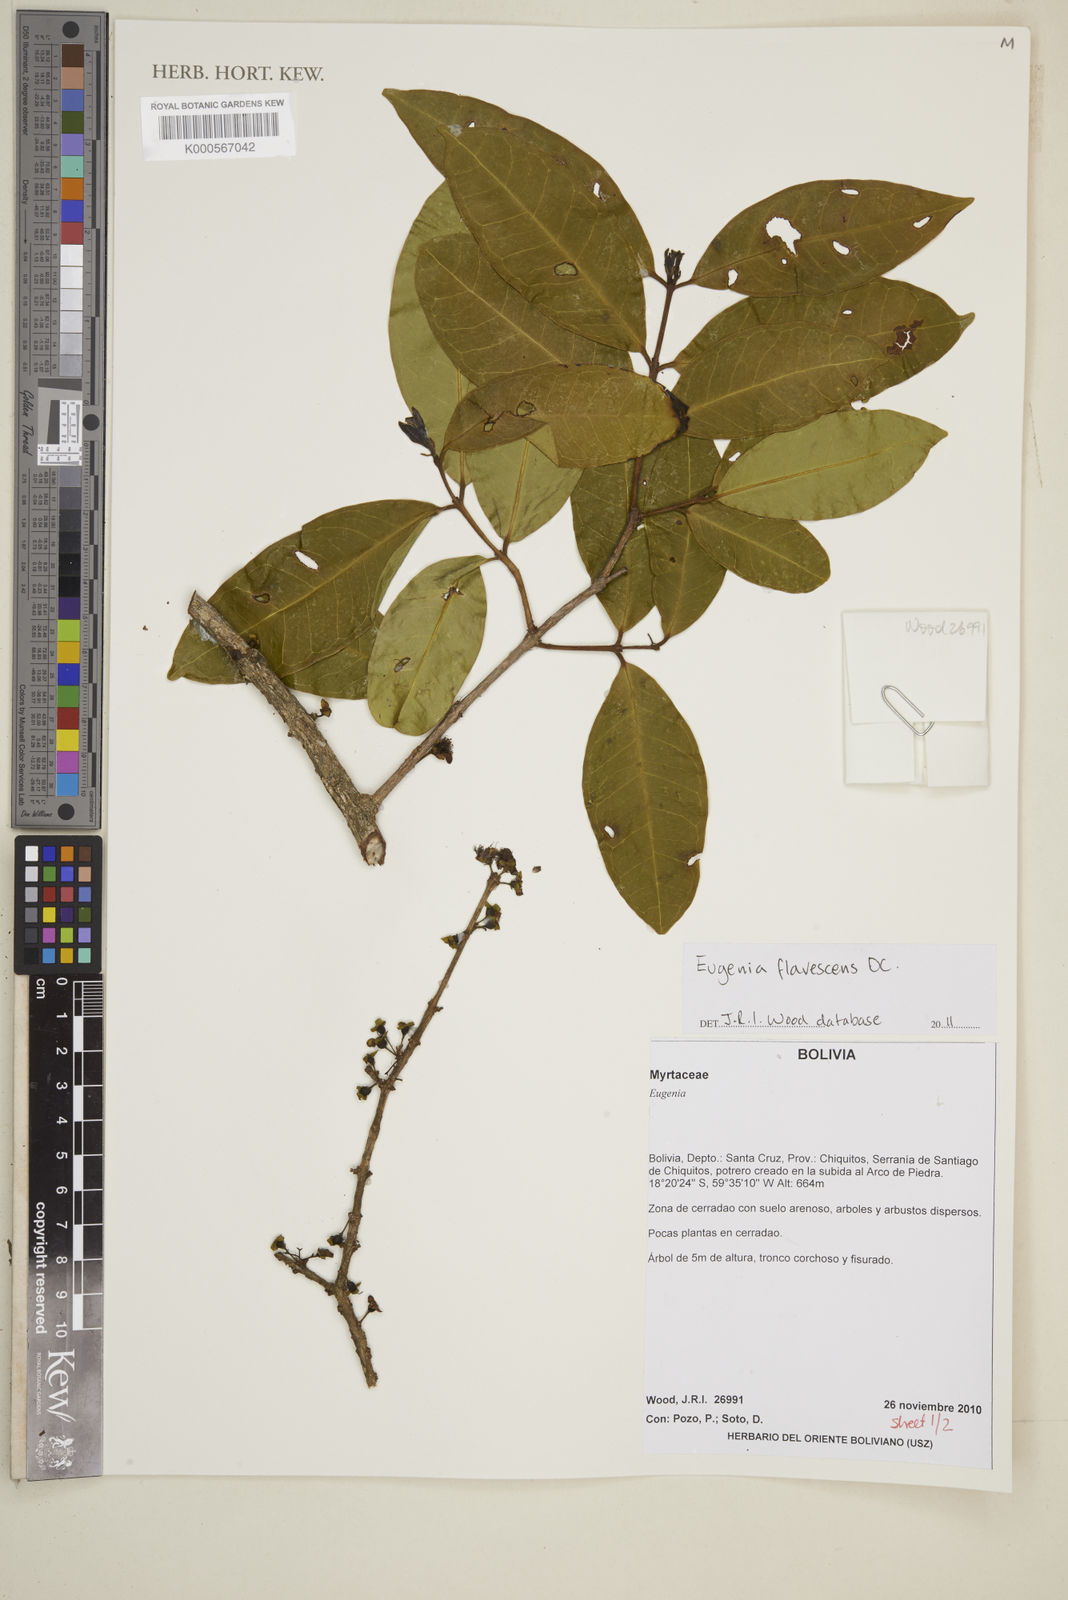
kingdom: Plantae
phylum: Tracheophyta
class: Magnoliopsida
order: Myrtales
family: Myrtaceae
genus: Eugenia
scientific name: Eugenia flavescens
